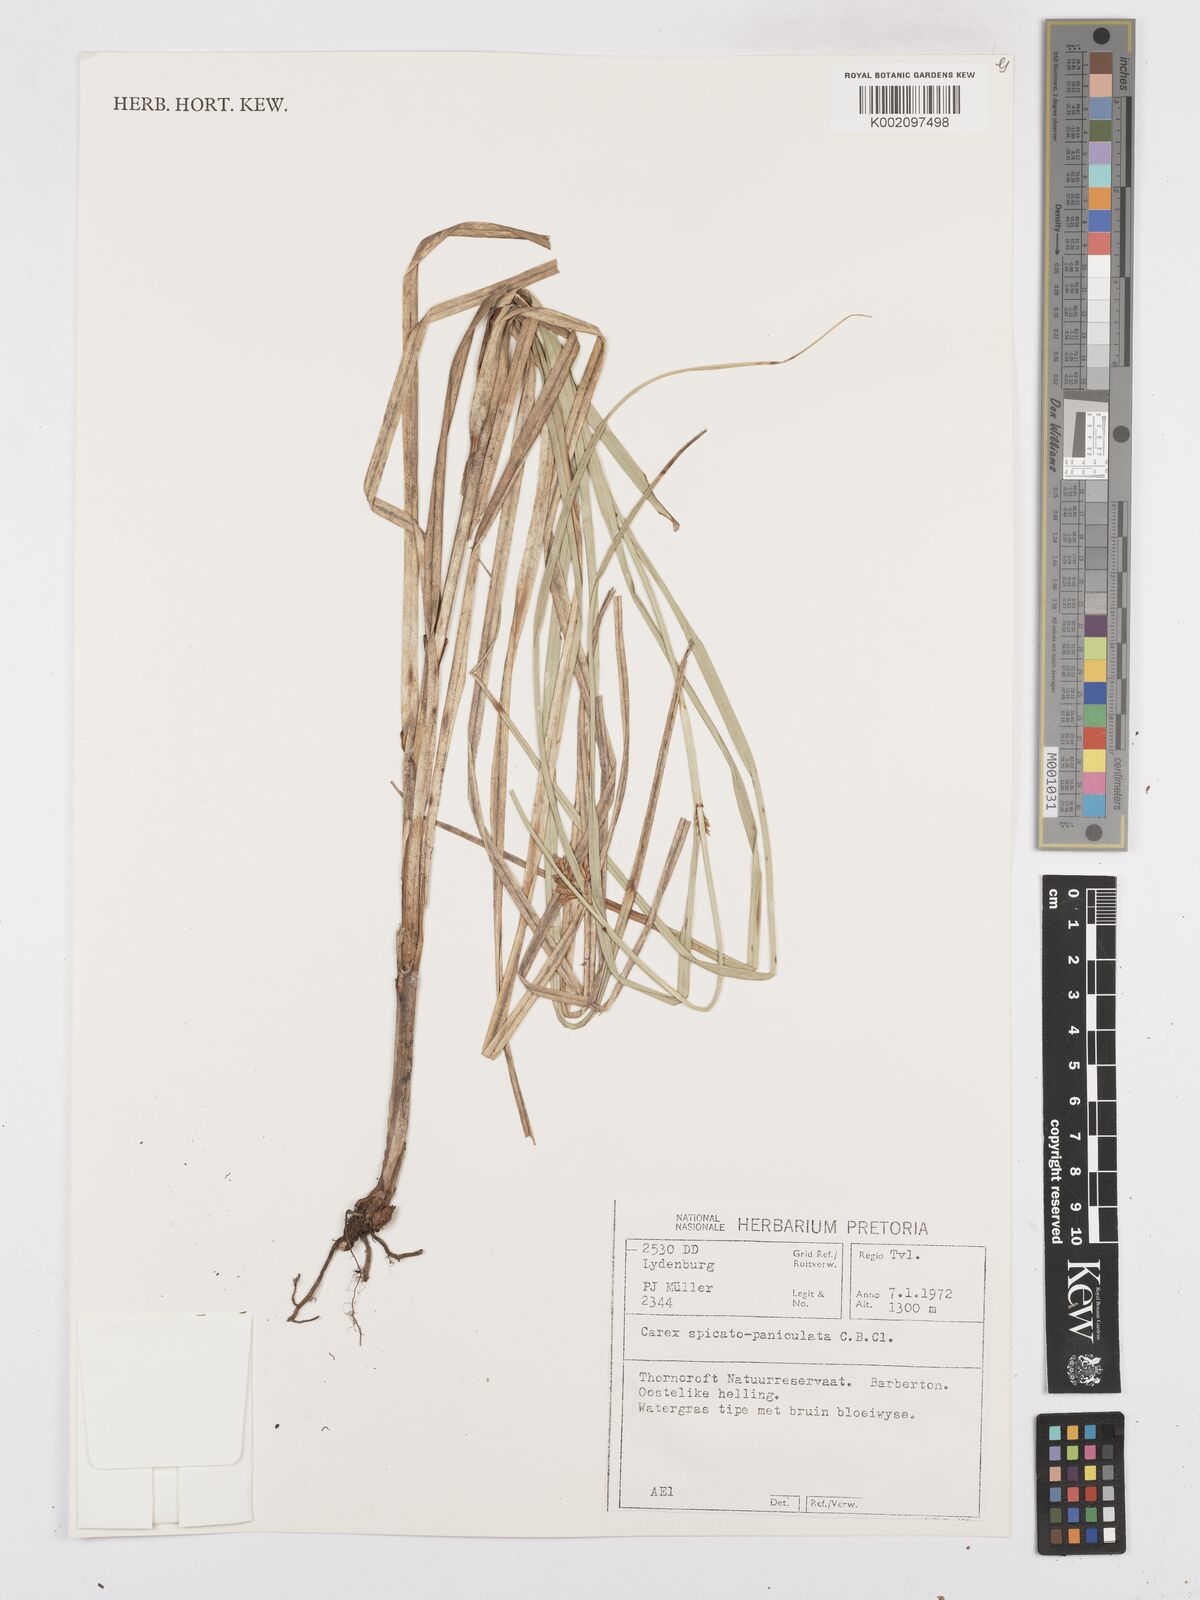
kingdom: Plantae
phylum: Tracheophyta
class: Liliopsida
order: Poales
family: Cyperaceae
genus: Carex
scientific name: Carex spicatopaniculata
